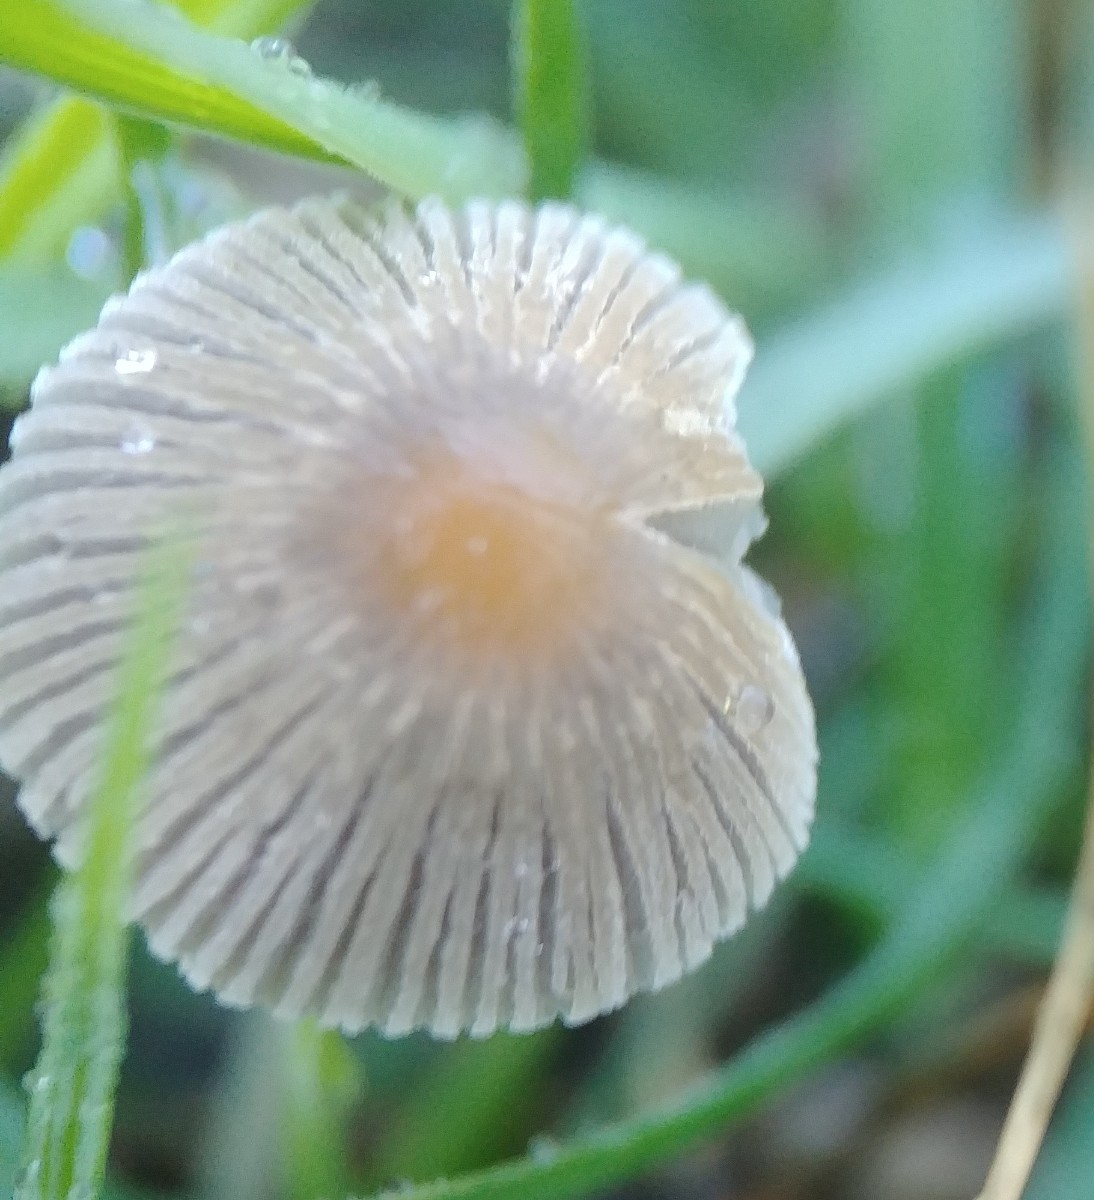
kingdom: Fungi
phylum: Basidiomycota
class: Agaricomycetes
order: Agaricales
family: Psathyrellaceae
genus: Parasola
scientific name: Parasola
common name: hjulhat
